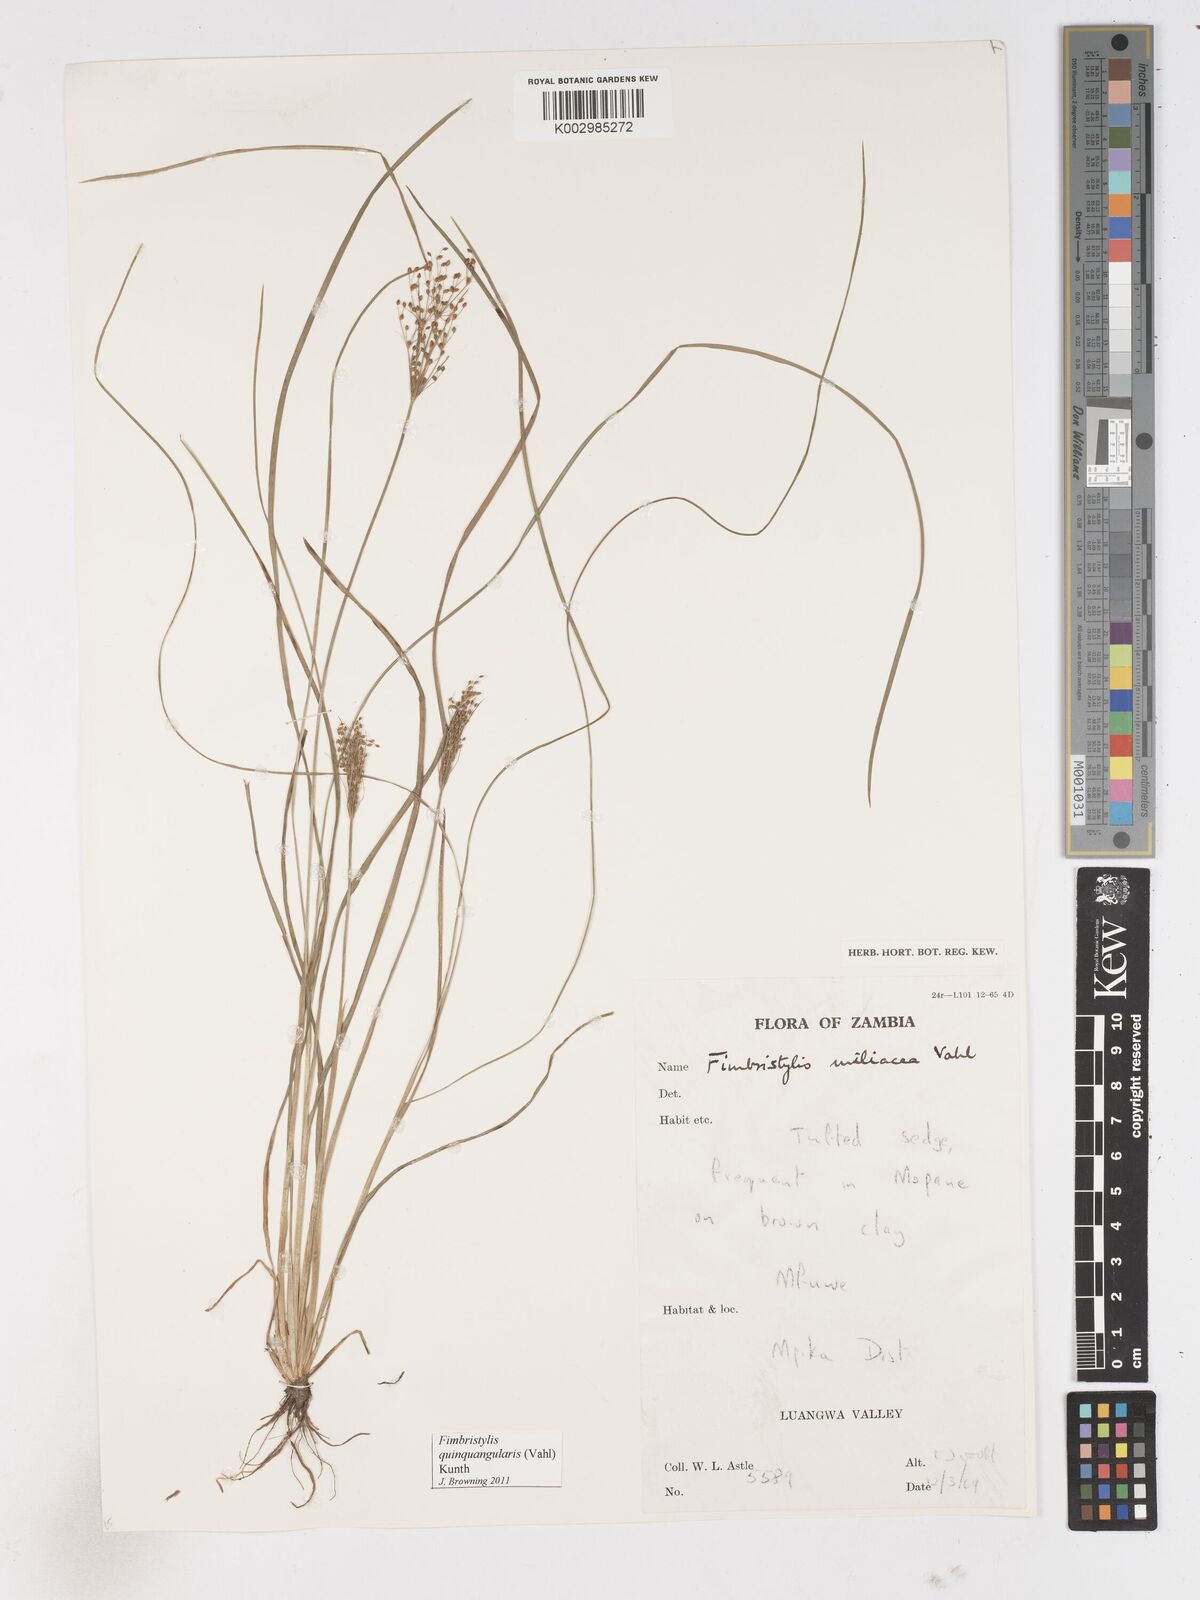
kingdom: Plantae
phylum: Tracheophyta
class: Liliopsida
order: Poales
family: Cyperaceae
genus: Fimbristylis
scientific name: Fimbristylis quinquangularis
